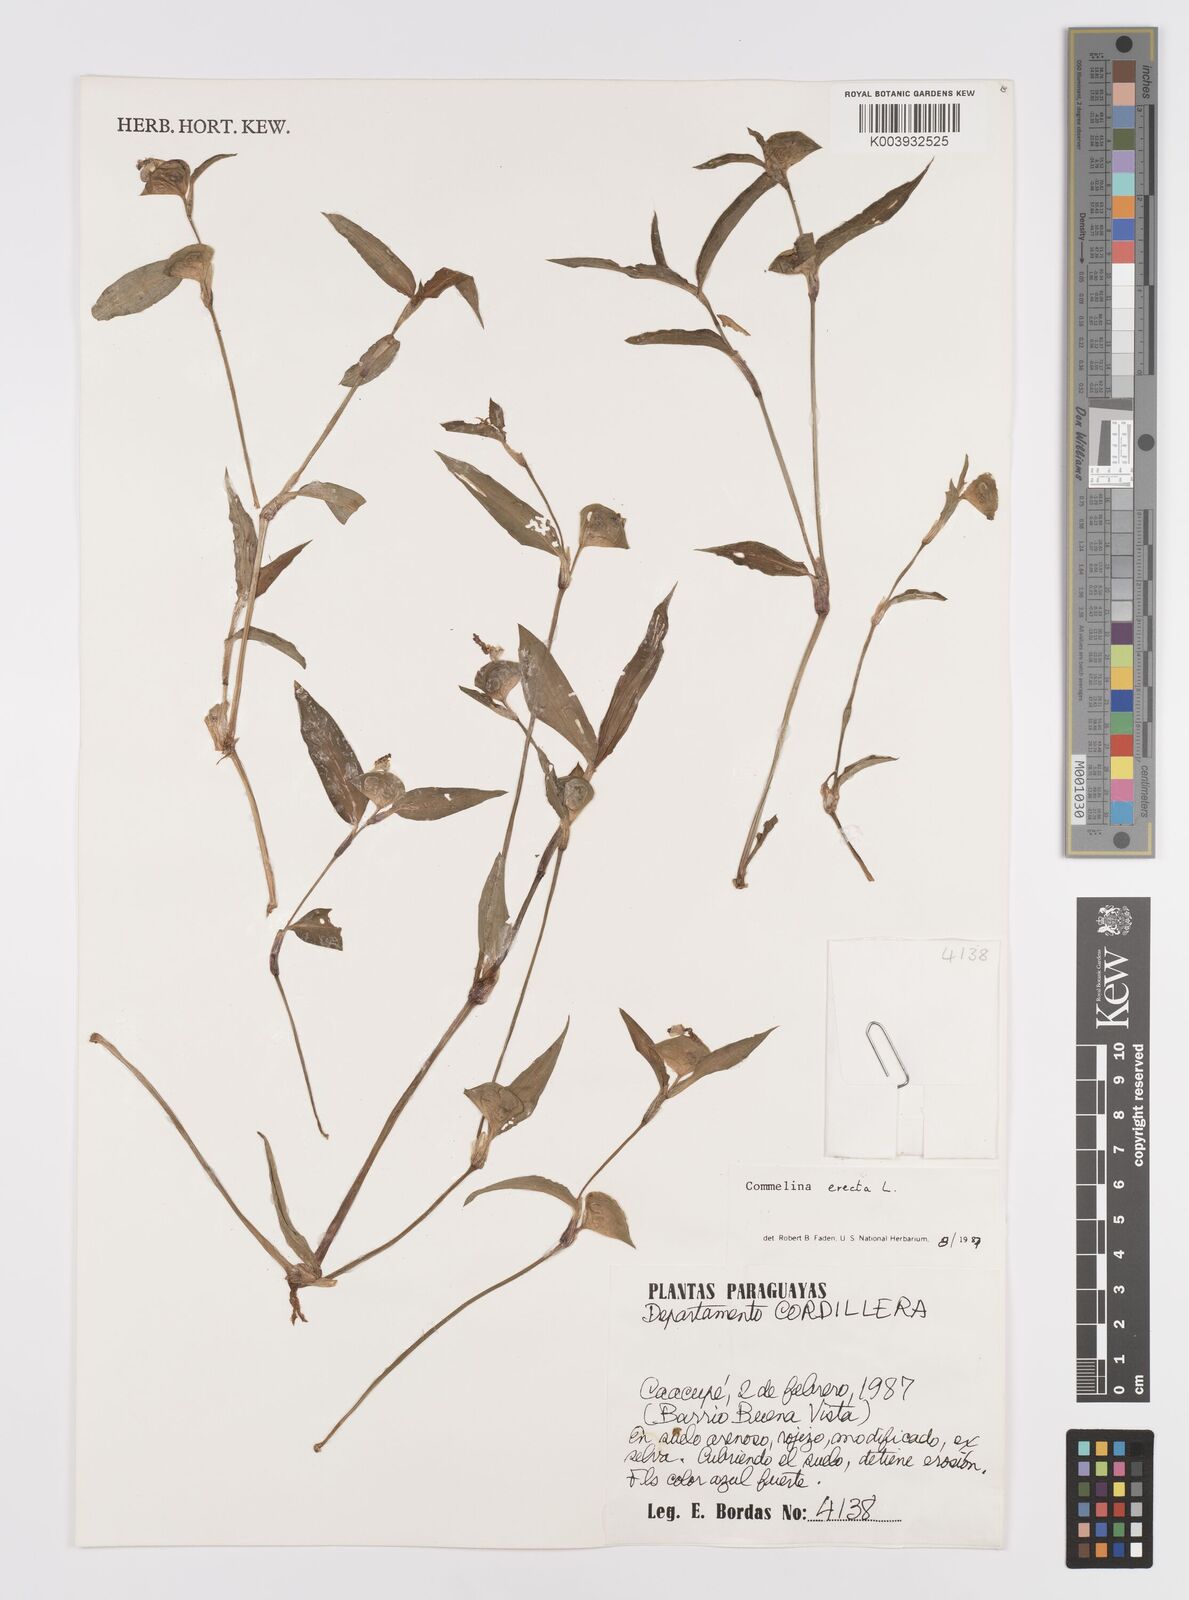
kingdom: Plantae
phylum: Tracheophyta
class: Liliopsida
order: Commelinales
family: Commelinaceae
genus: Commelina
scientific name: Commelina erecta
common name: Blousel blommetjie
